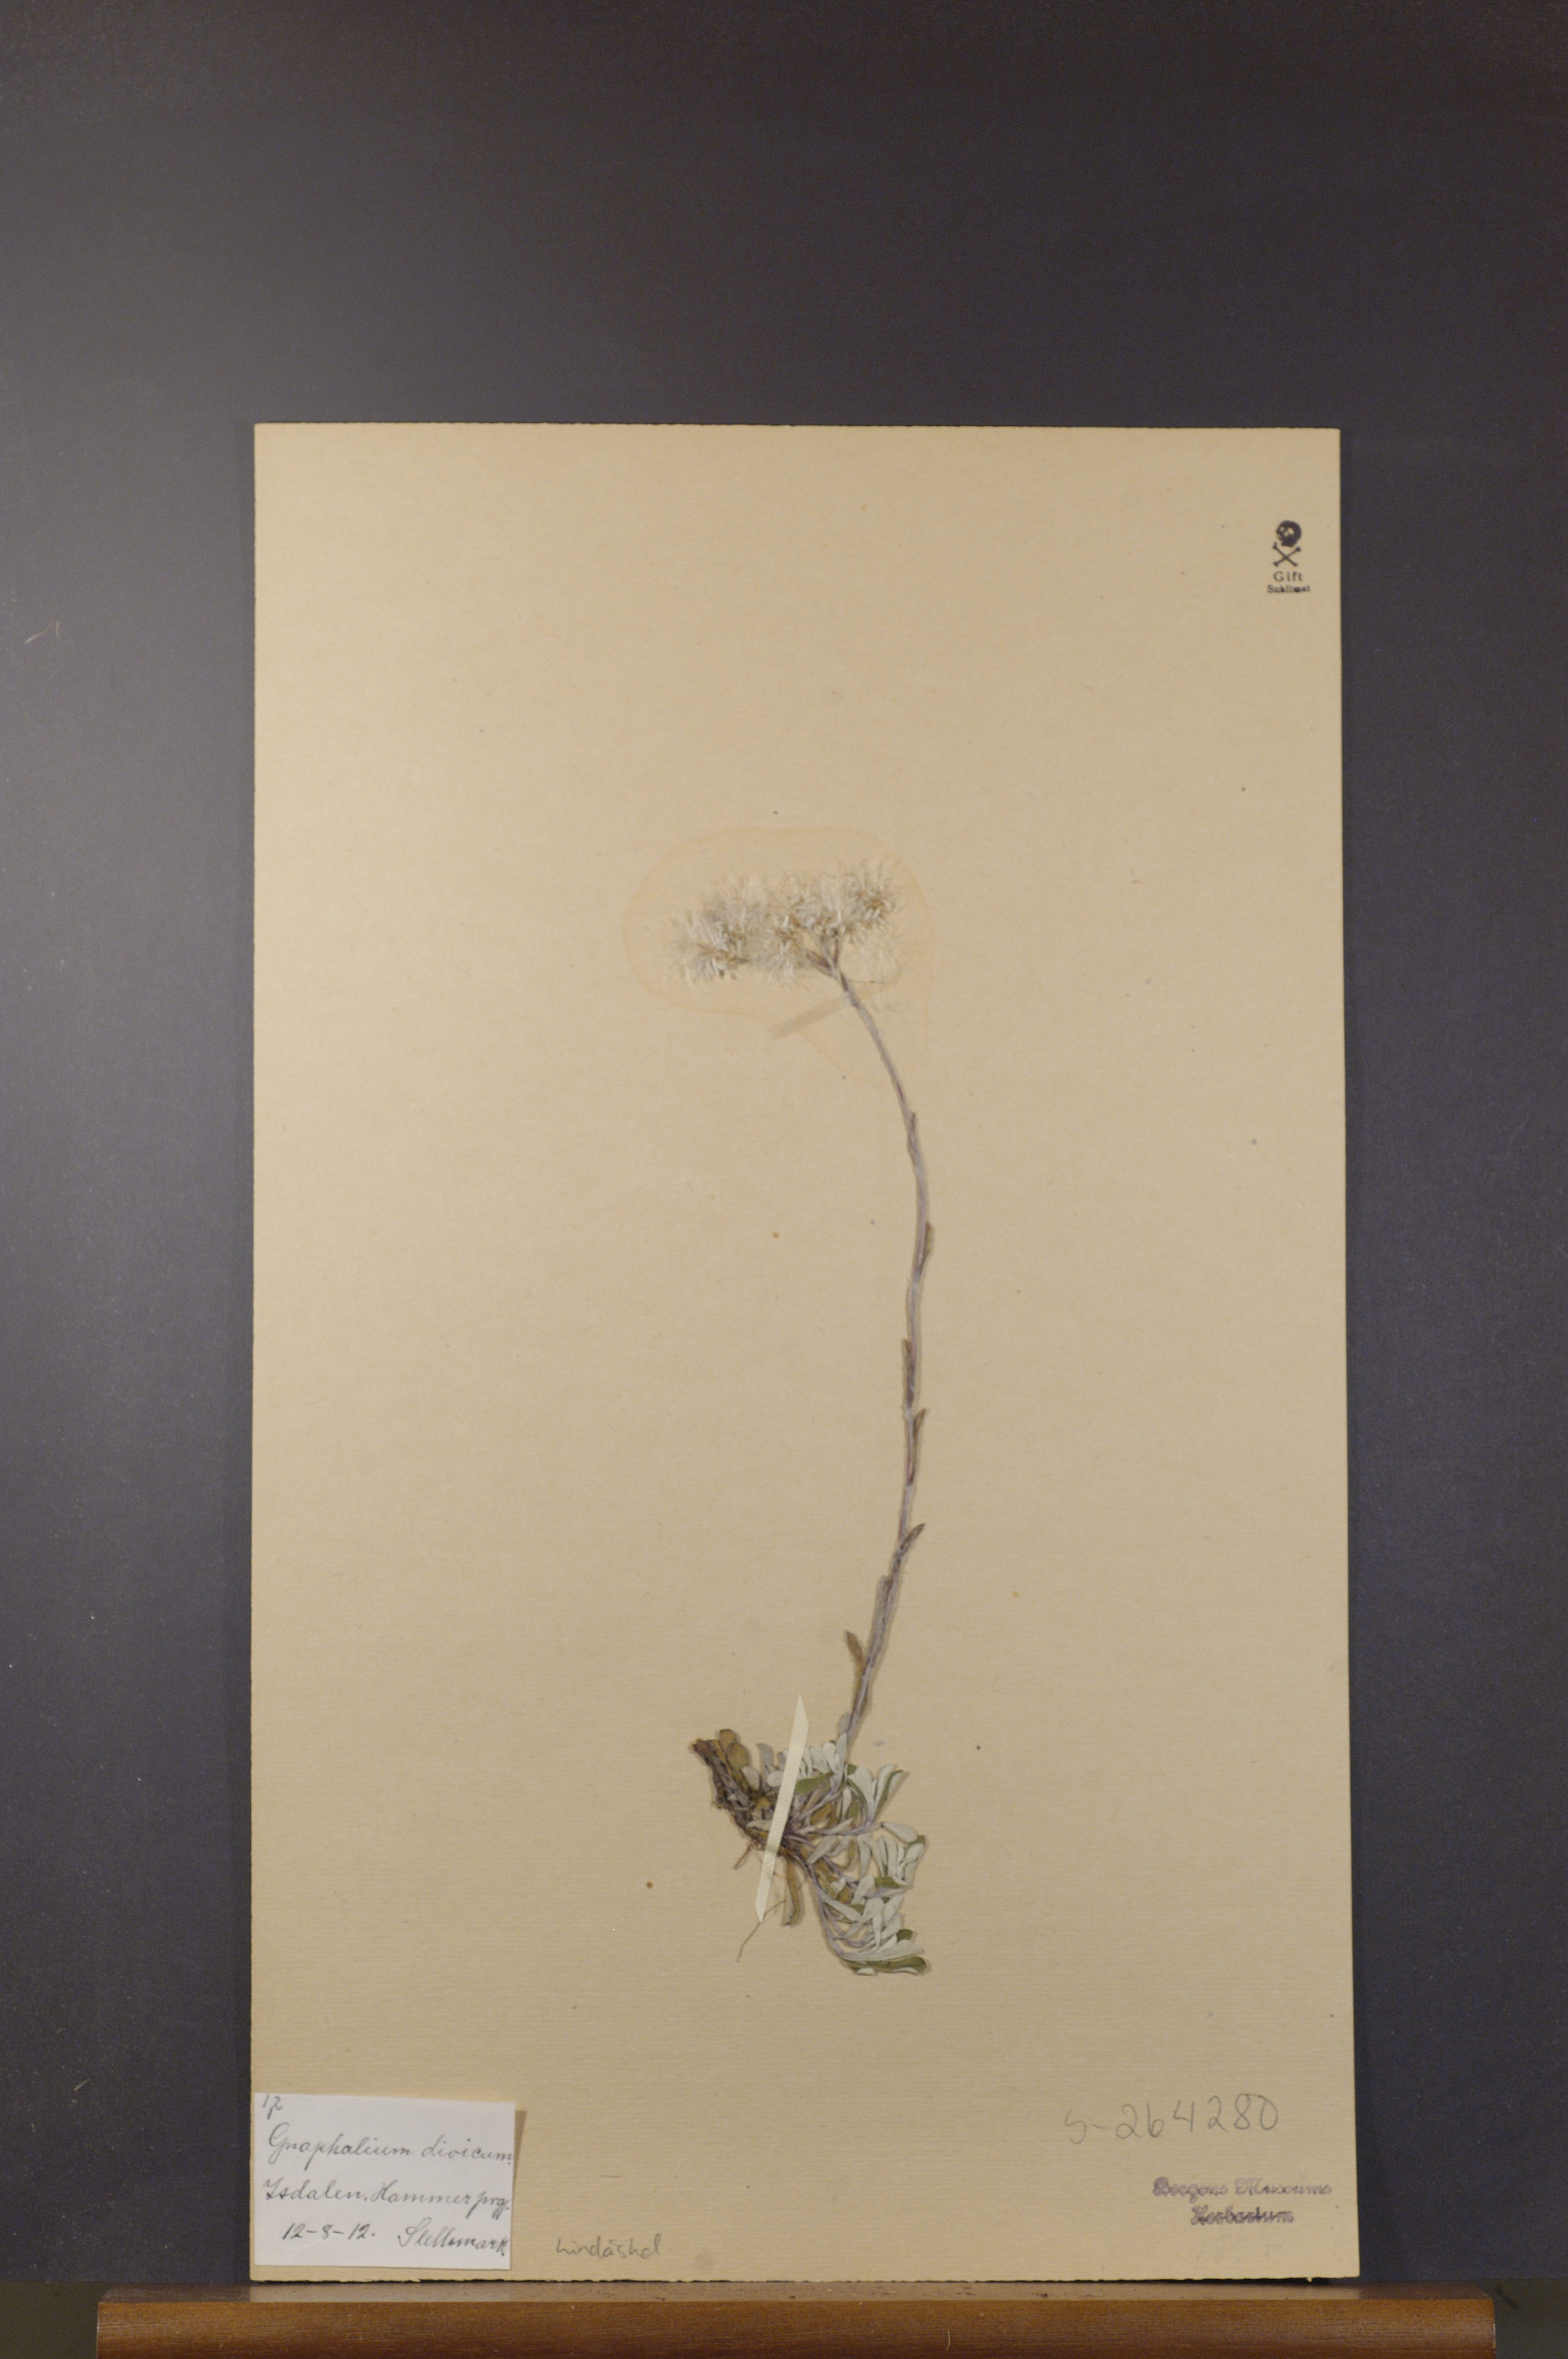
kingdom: Plantae
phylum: Tracheophyta
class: Magnoliopsida
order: Asterales
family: Asteraceae
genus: Antennaria
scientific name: Antennaria dioica
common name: Mountain everlasting
